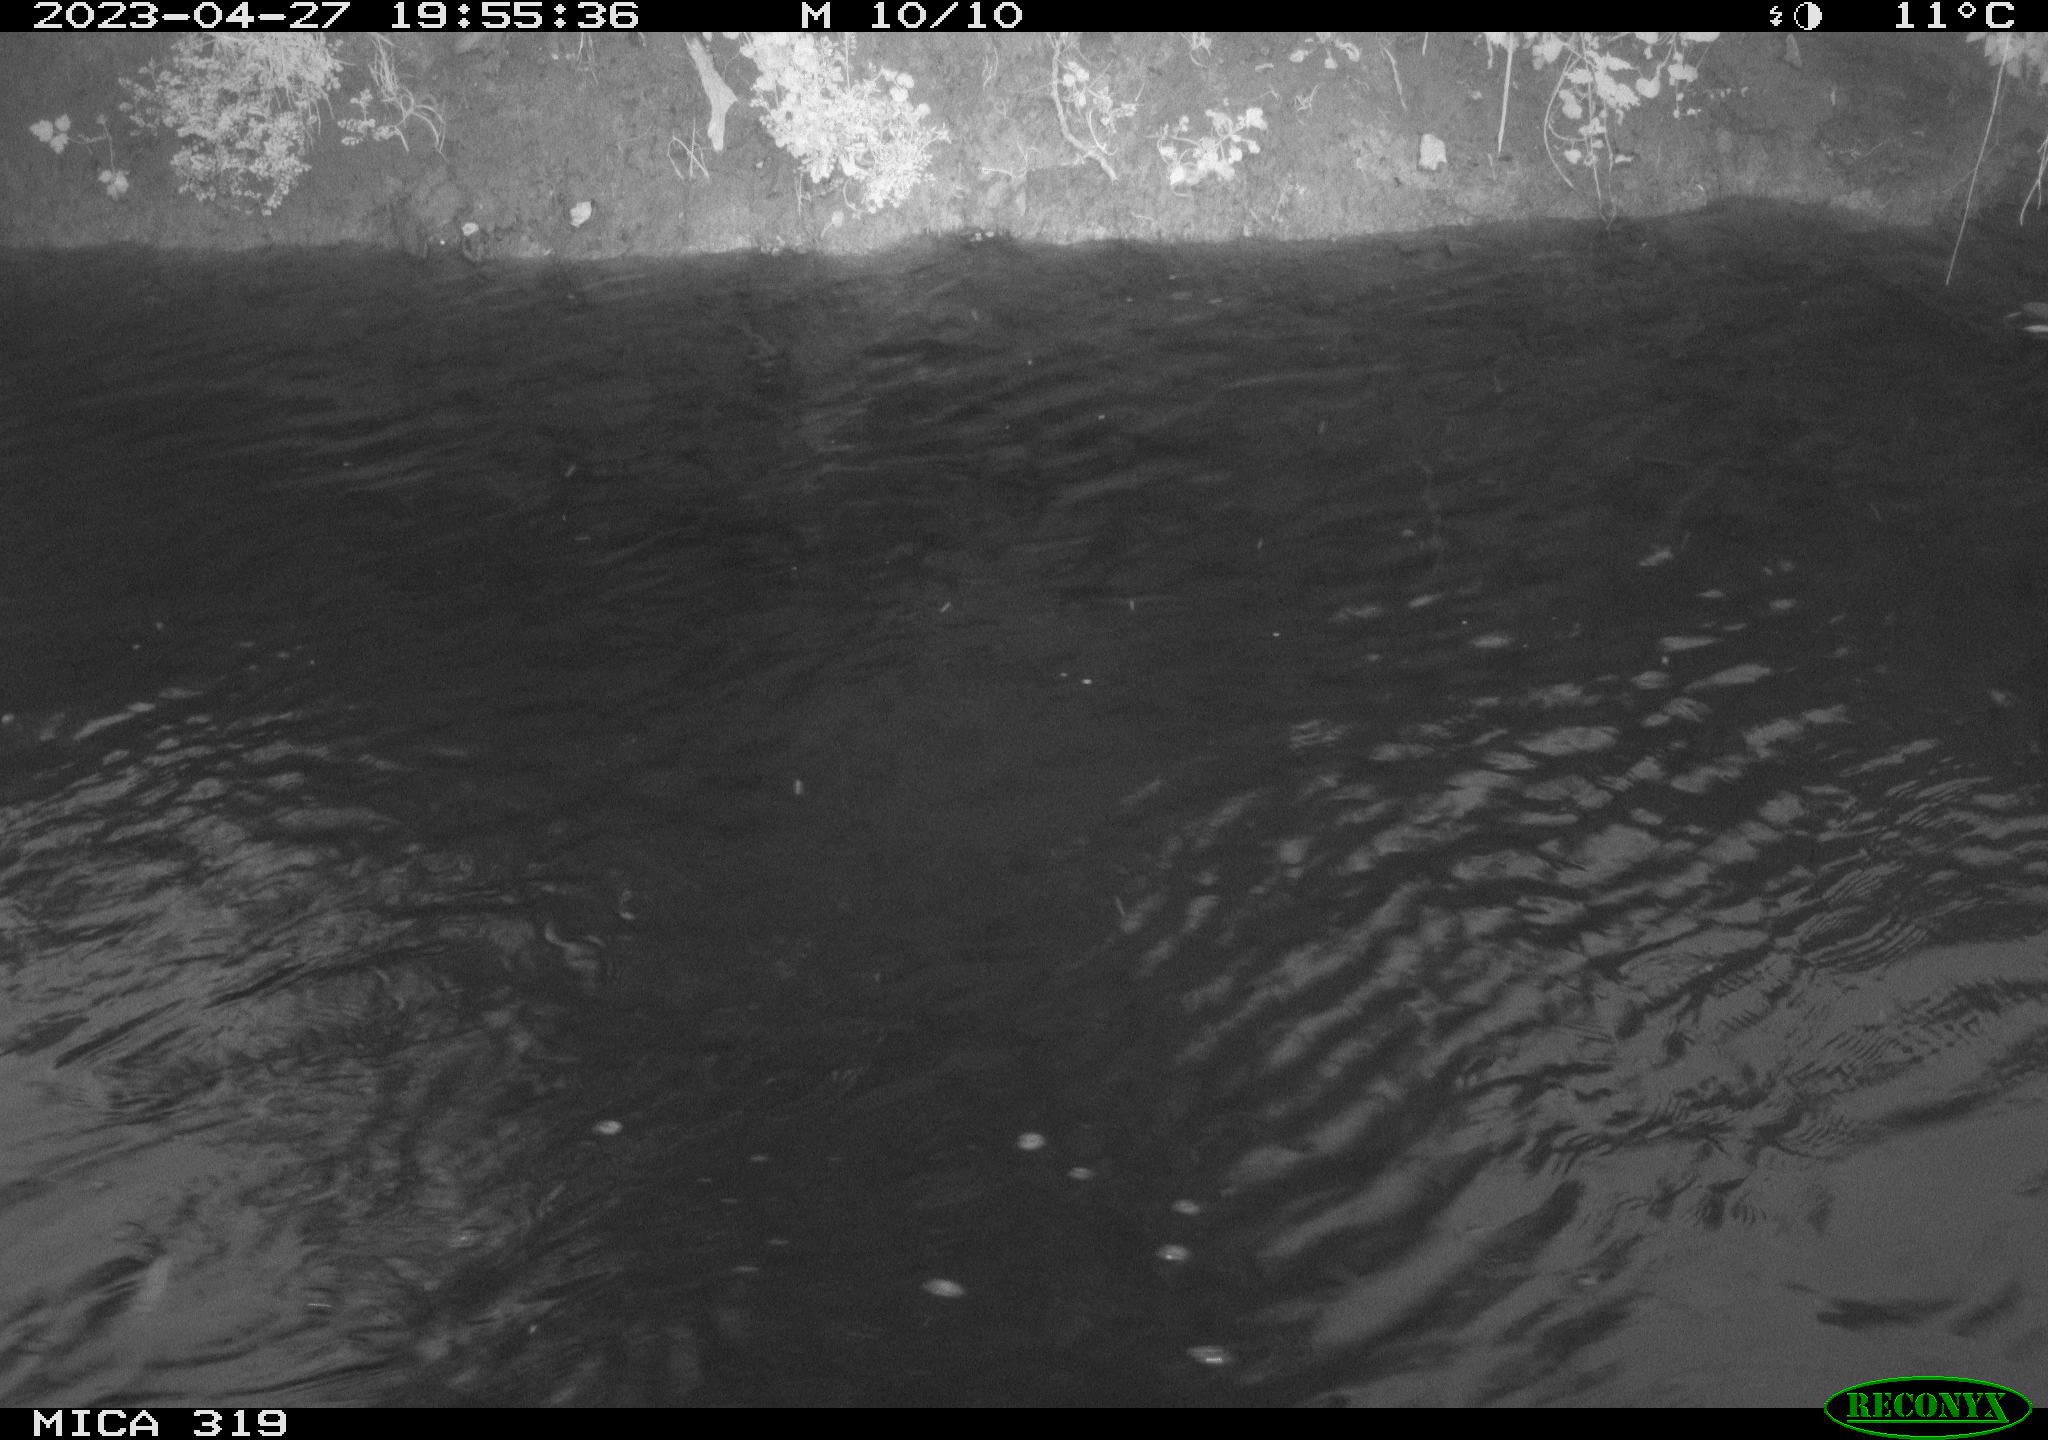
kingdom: Animalia
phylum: Chordata
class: Aves
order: Gruiformes
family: Rallidae
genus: Gallinula
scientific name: Gallinula chloropus
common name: Common moorhen
